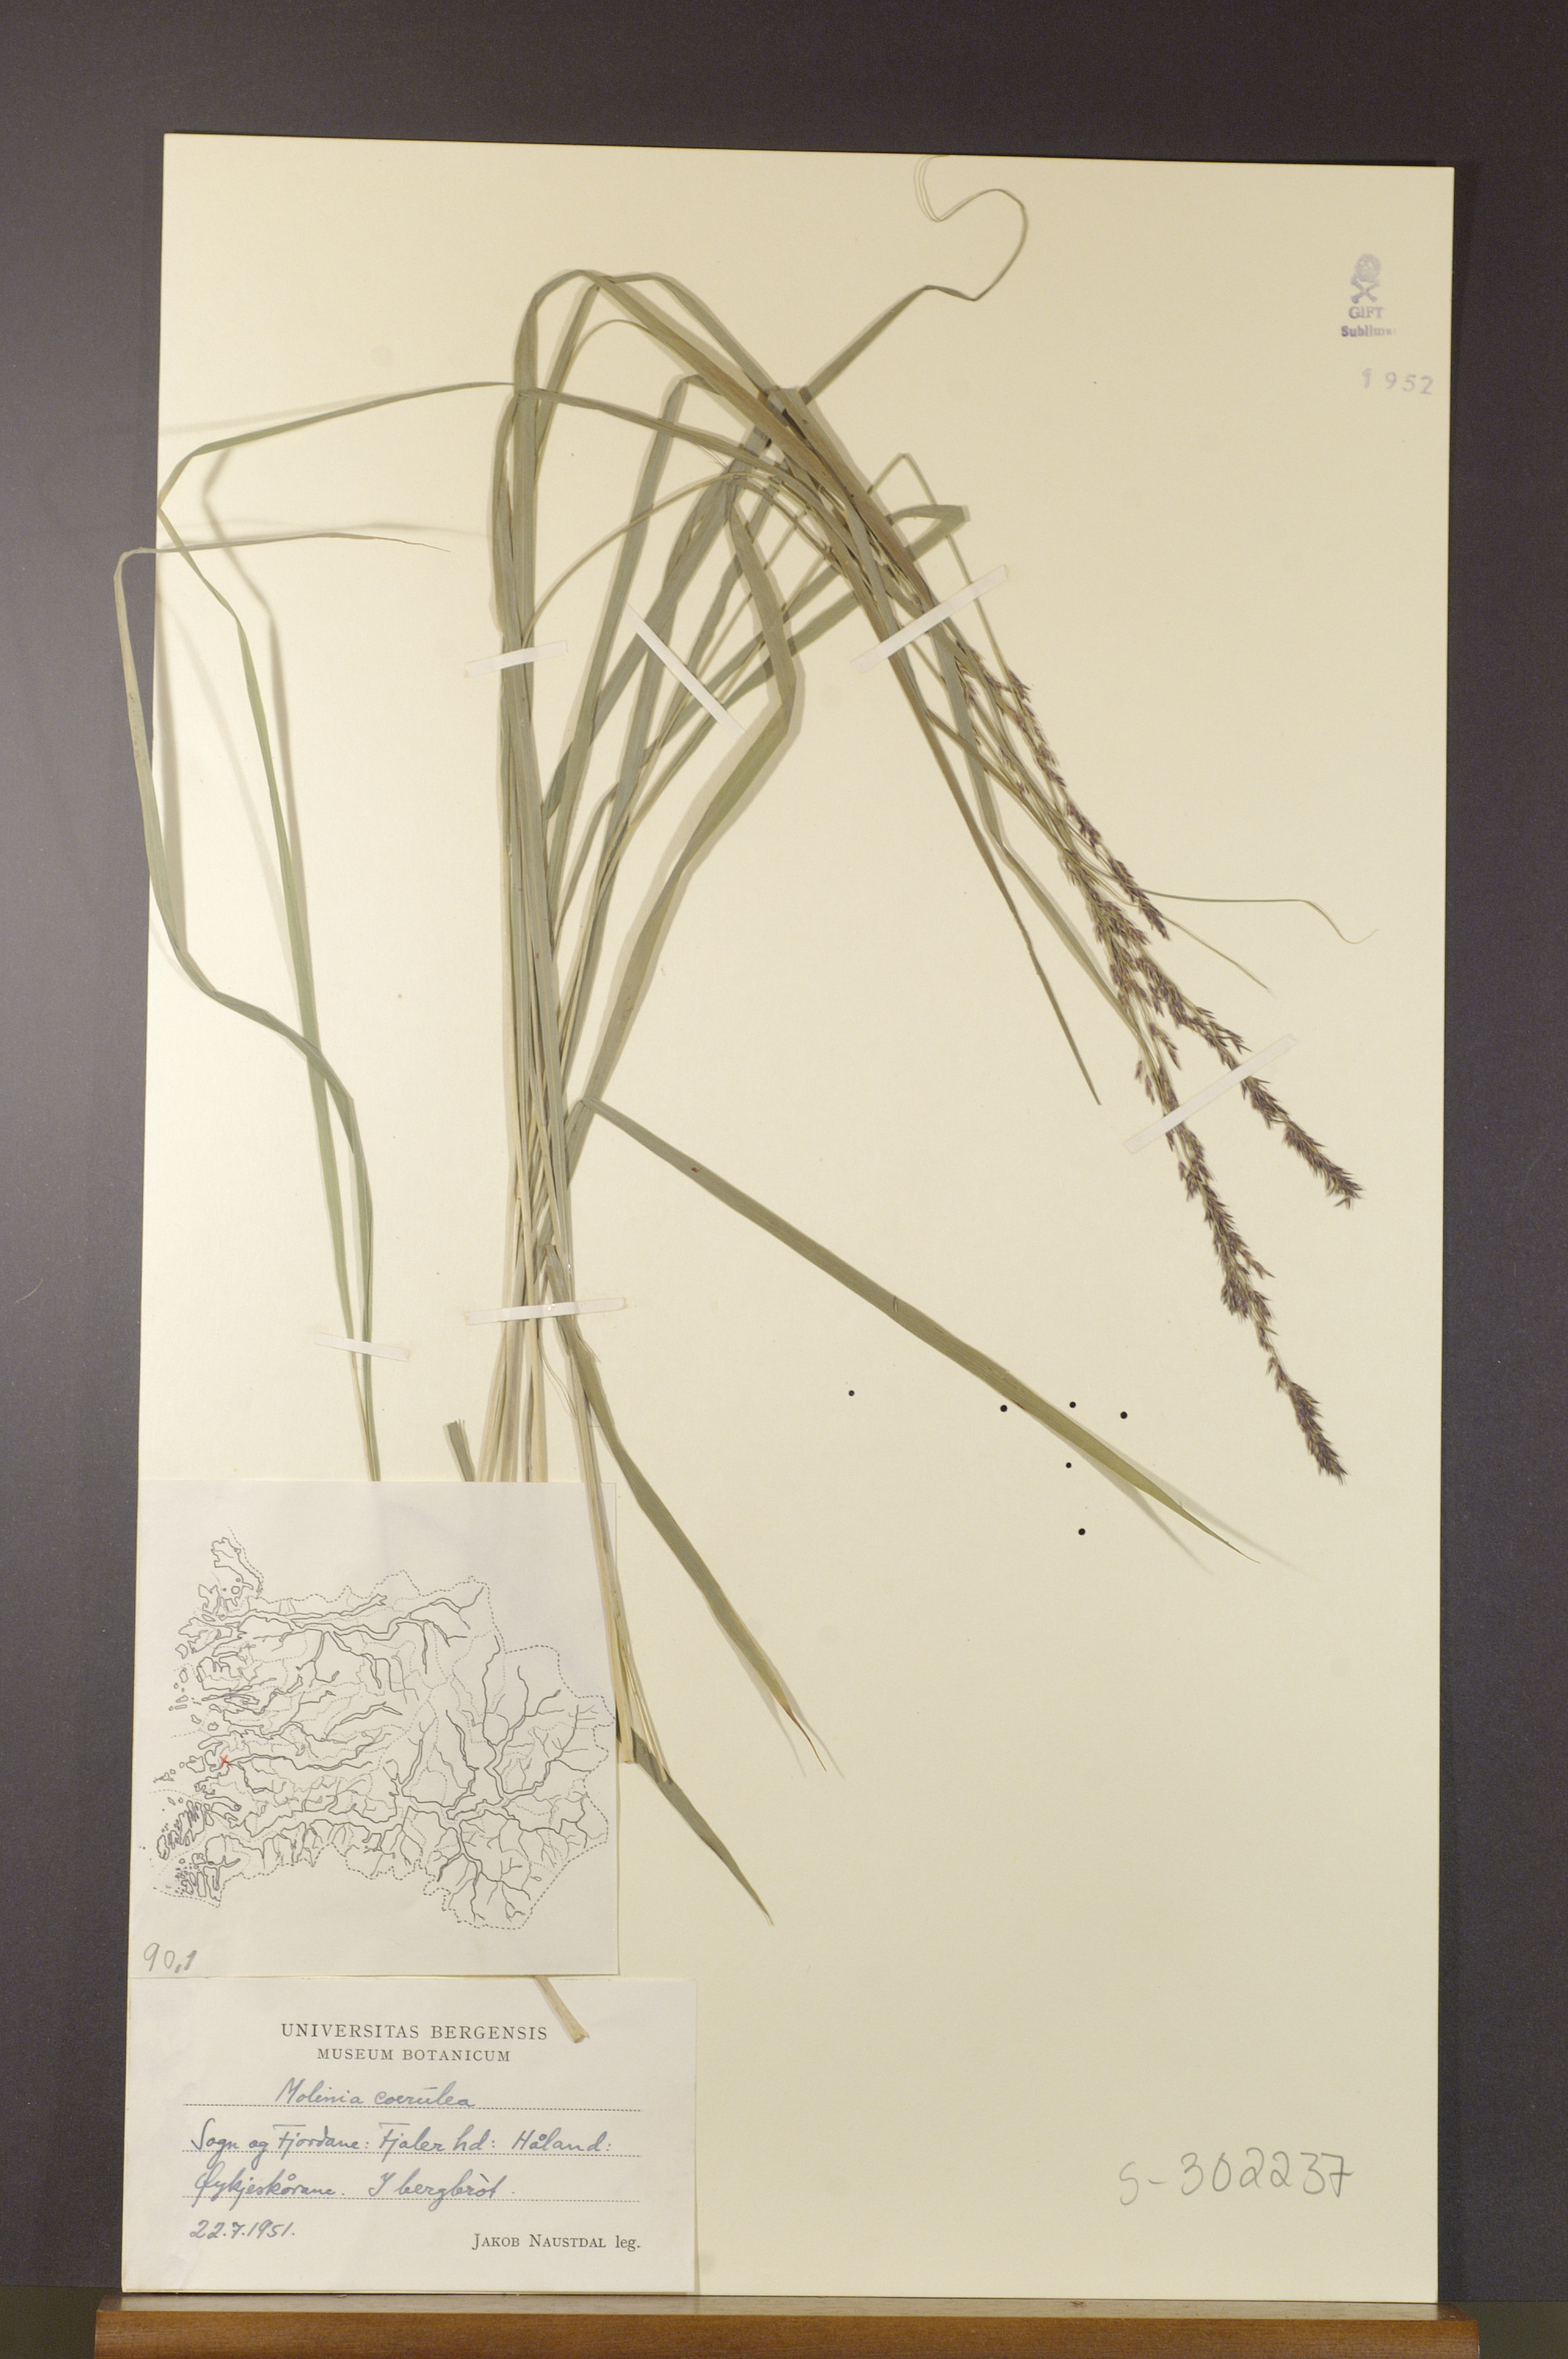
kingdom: Plantae
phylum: Tracheophyta
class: Liliopsida
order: Poales
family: Poaceae
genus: Molinia
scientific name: Molinia caerulea
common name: Purple moor-grass
